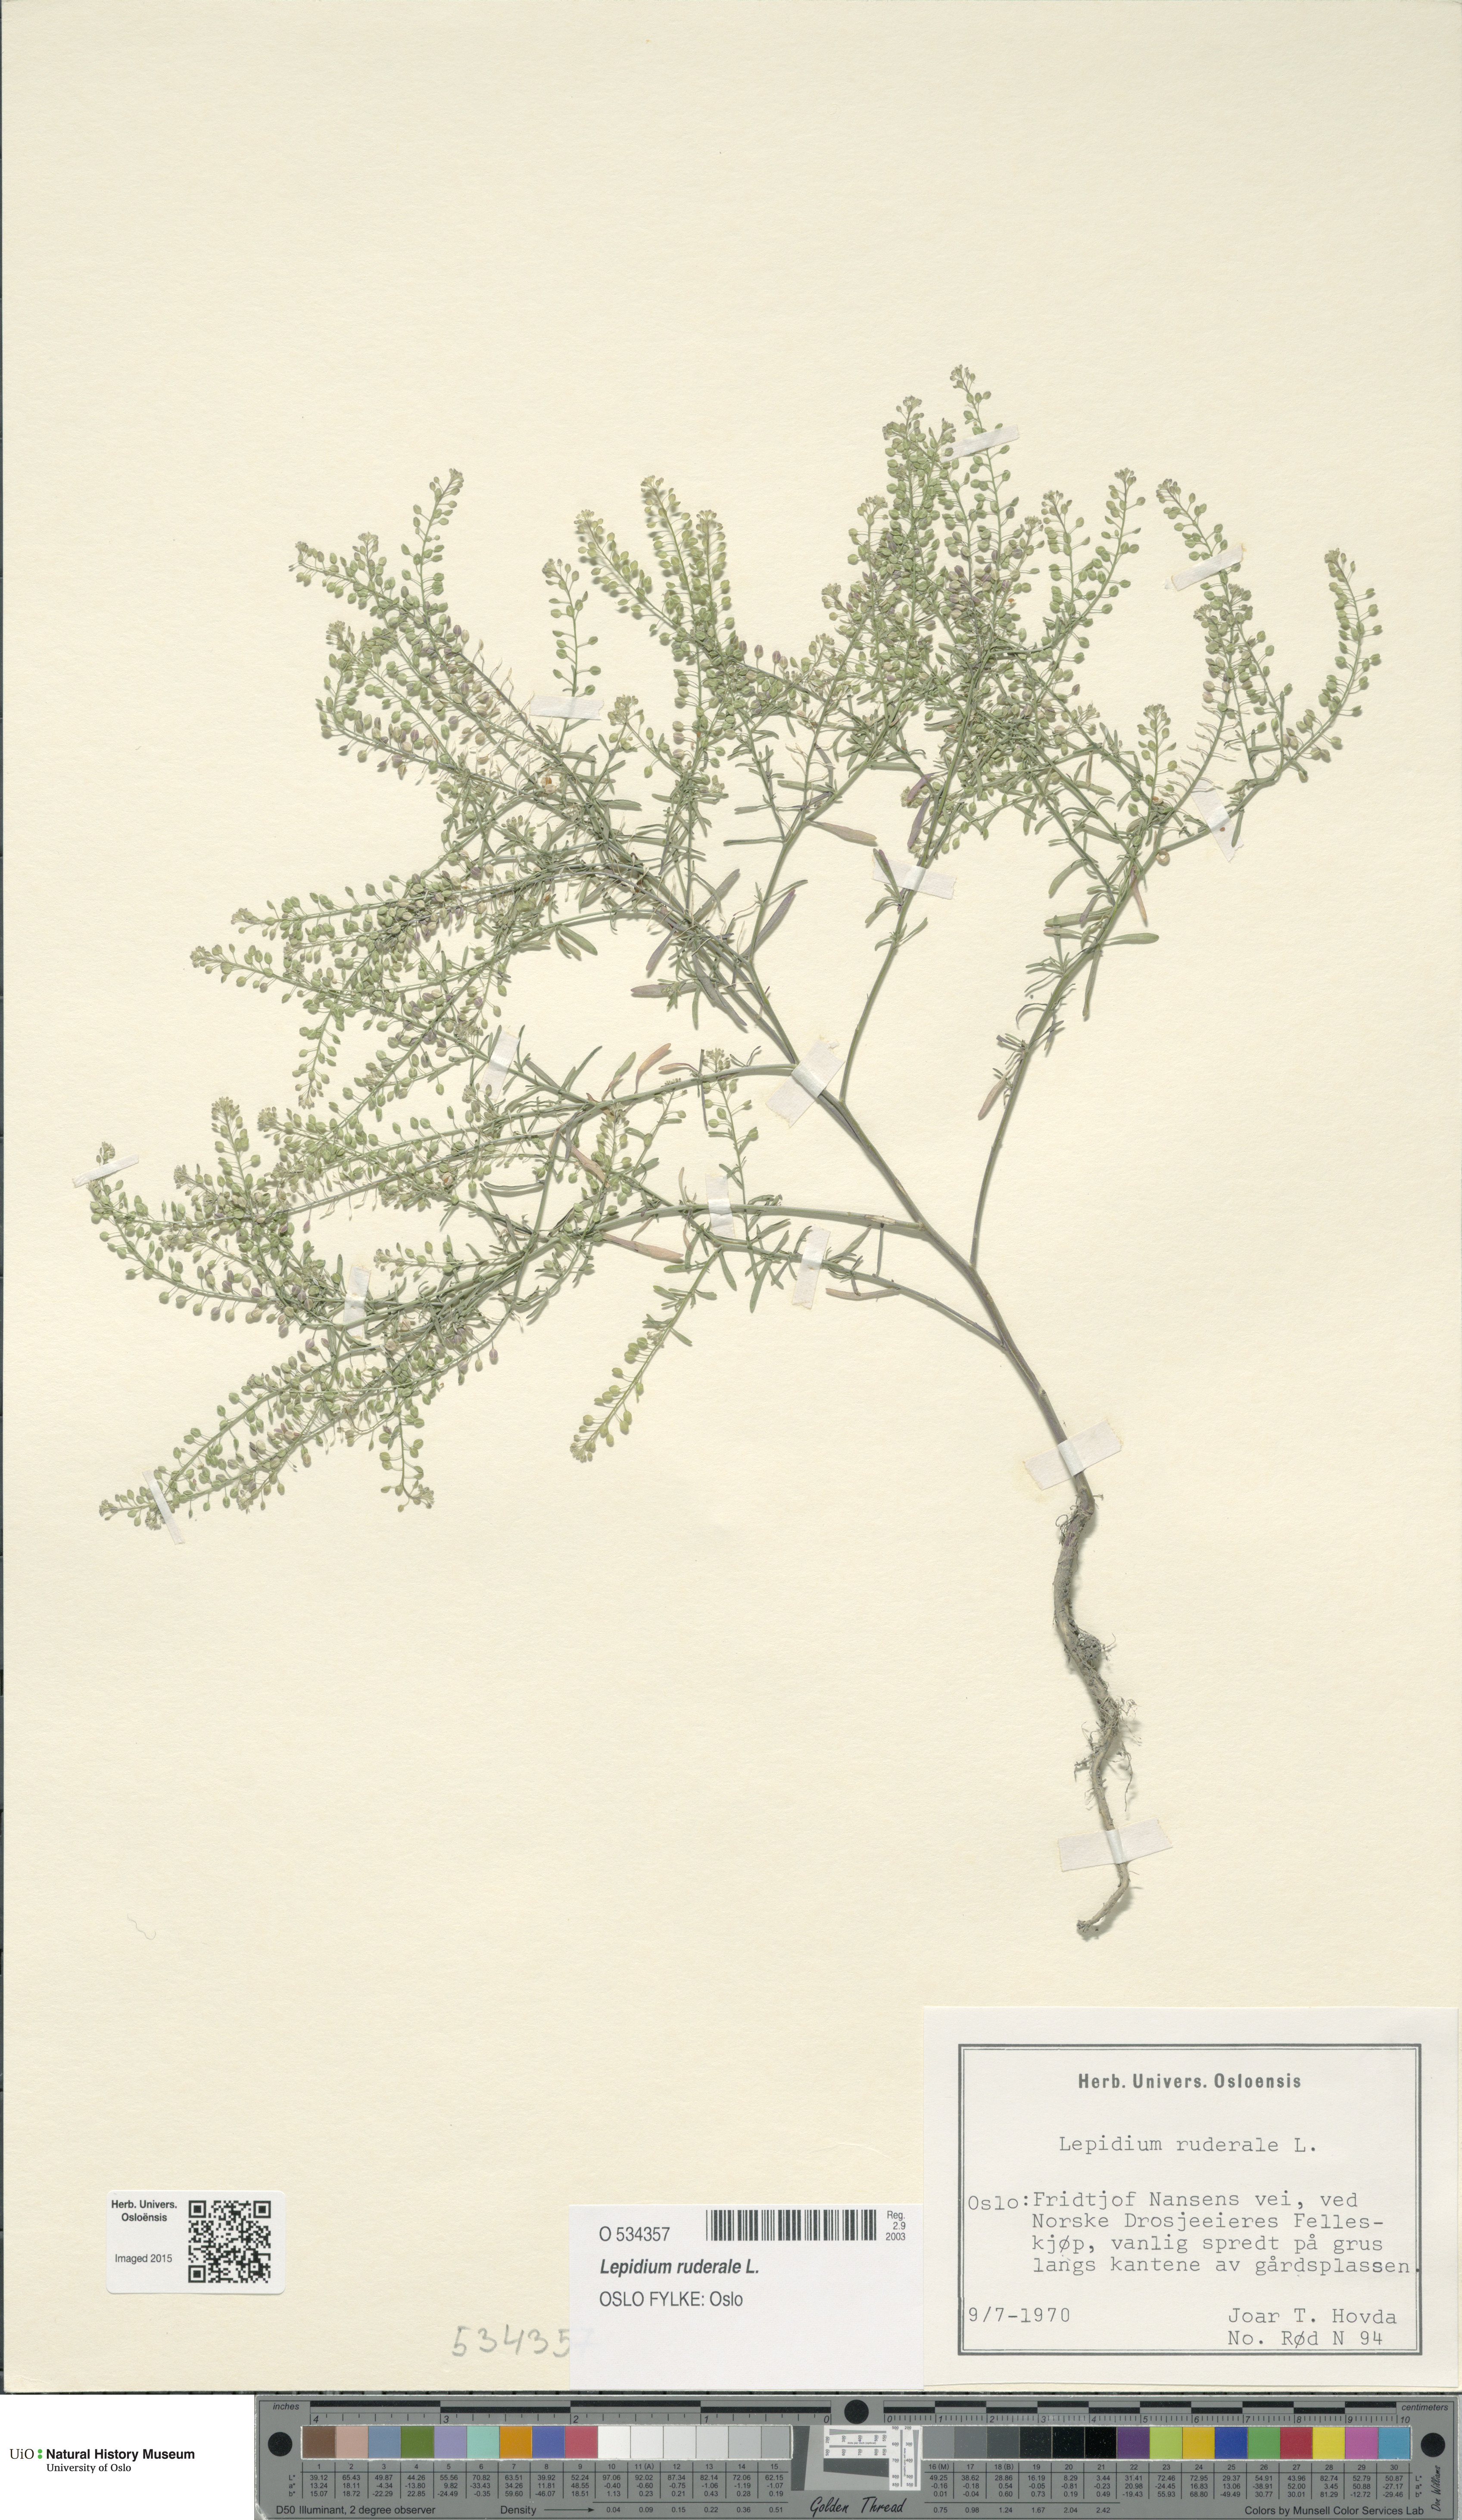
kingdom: Plantae
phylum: Tracheophyta
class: Magnoliopsida
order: Brassicales
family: Brassicaceae
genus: Lepidium
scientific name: Lepidium ruderale
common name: Narrow-leaved pepperwort
